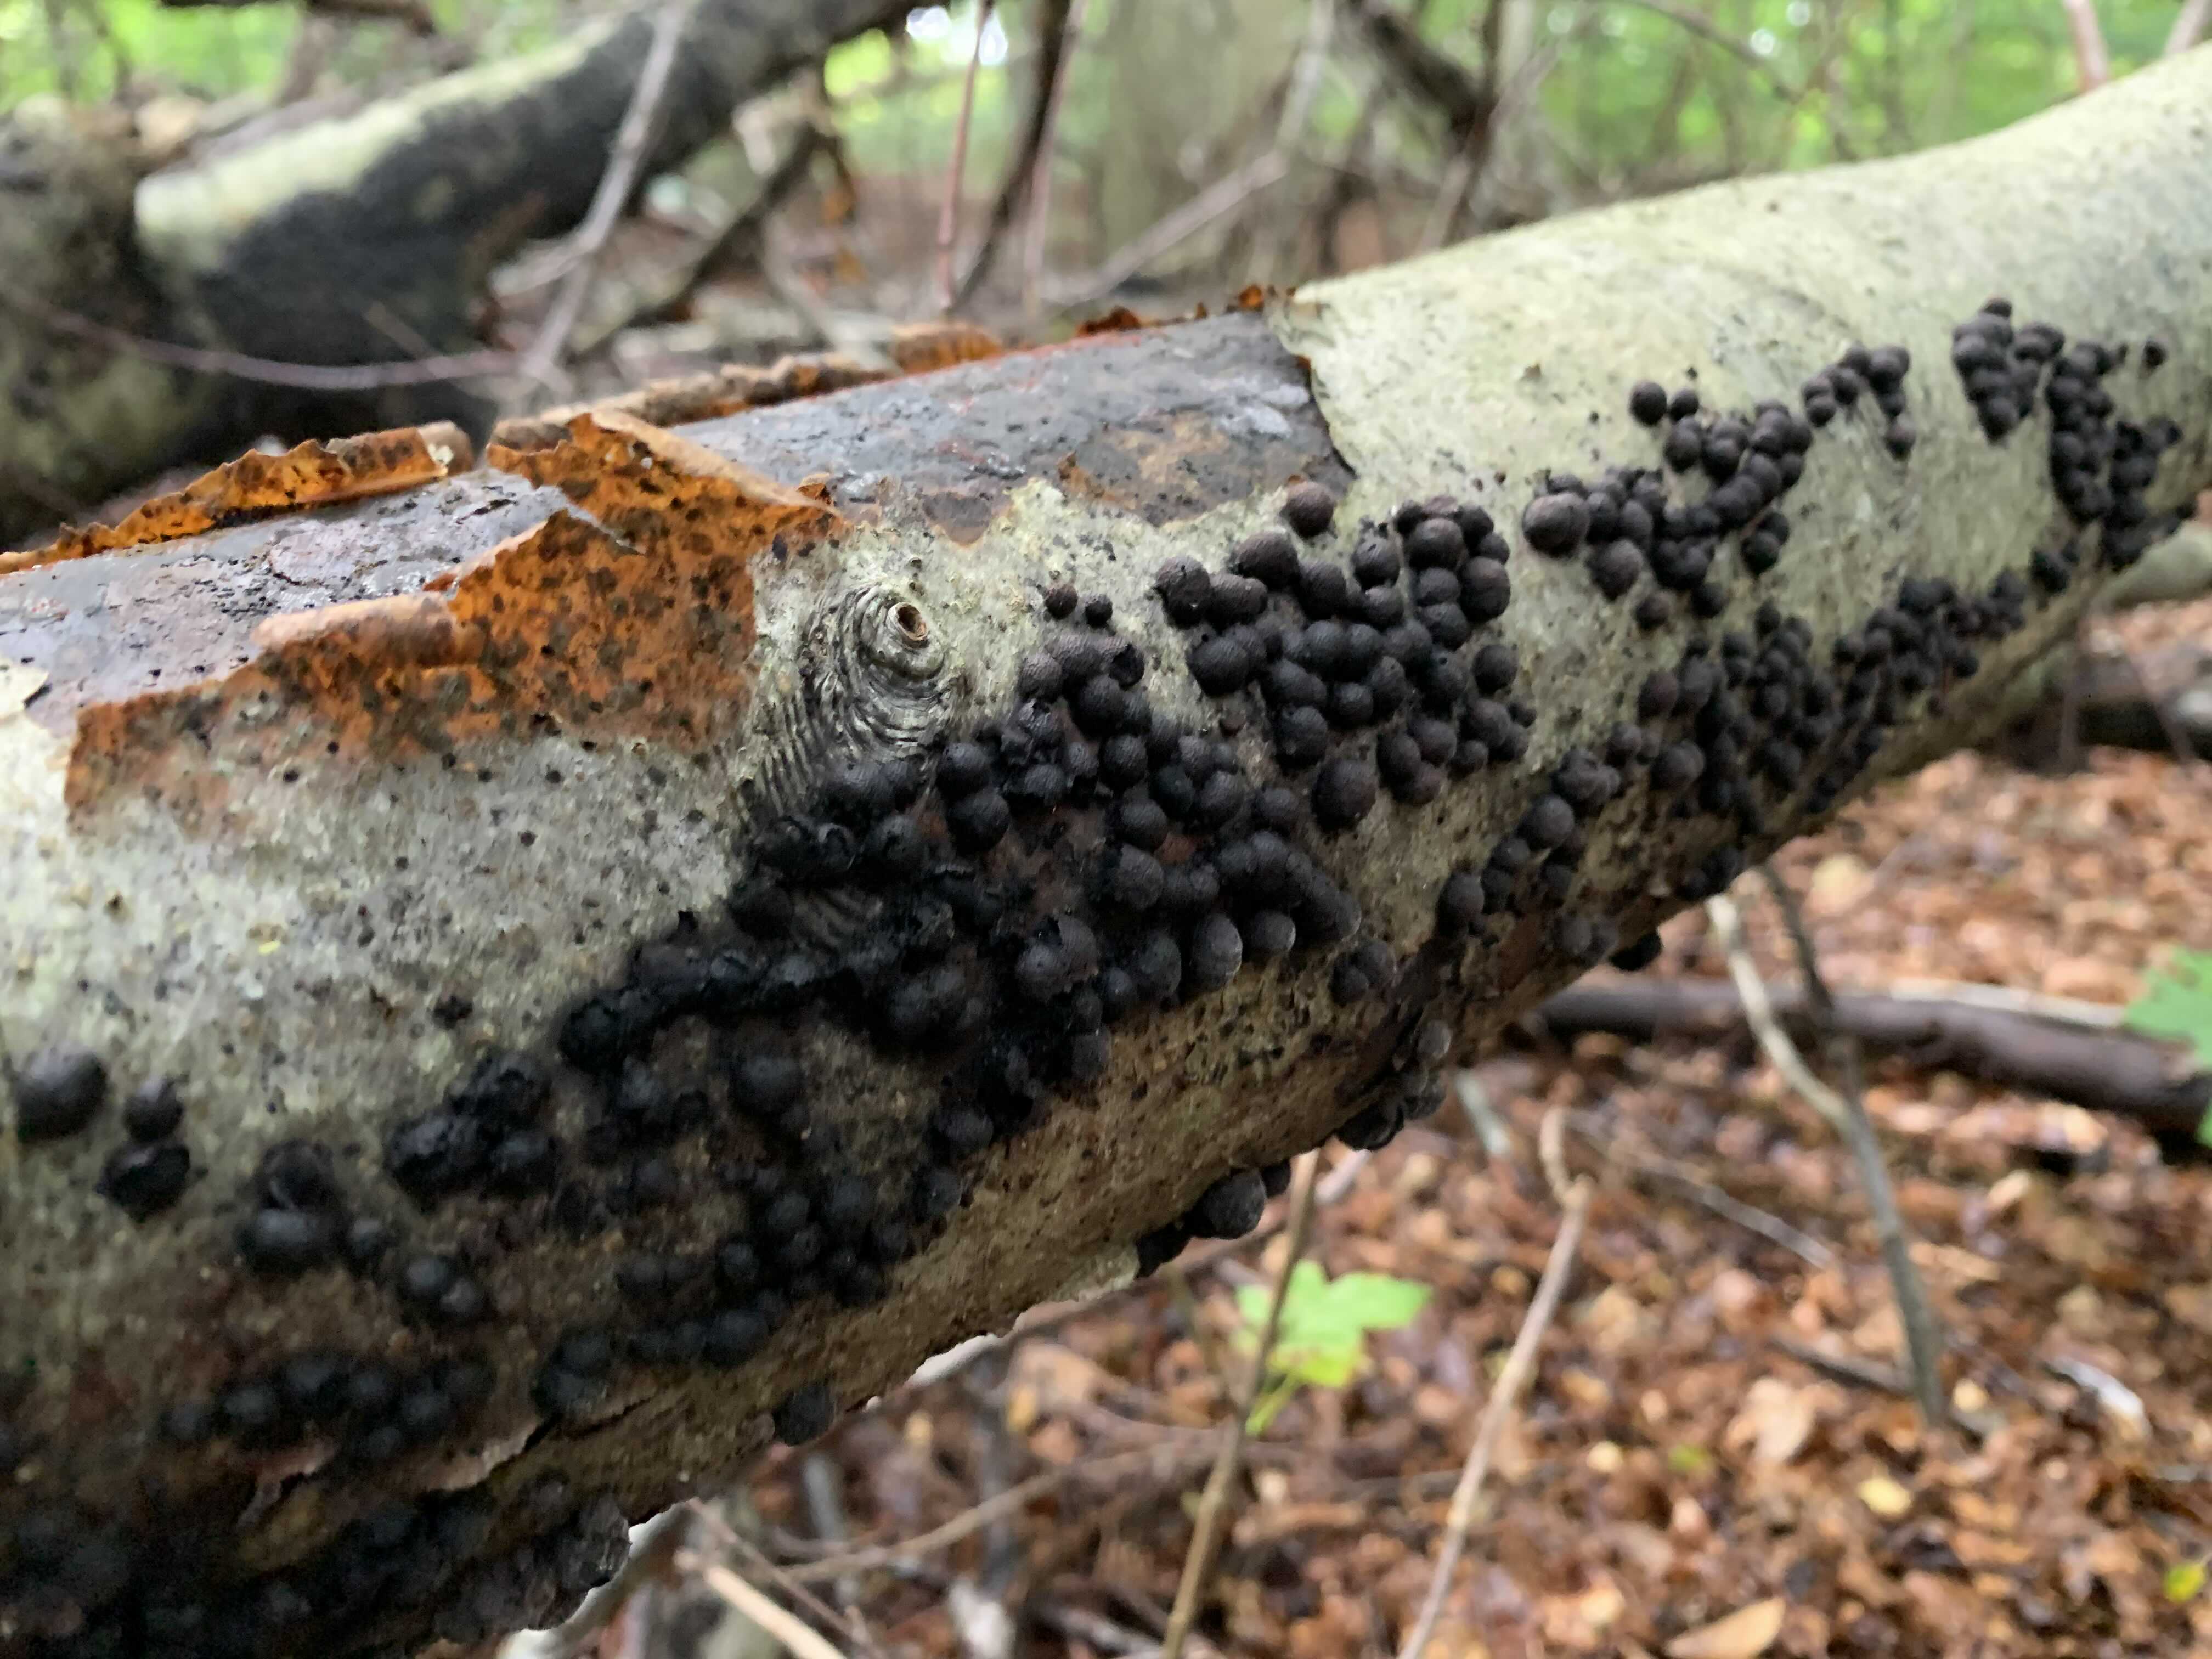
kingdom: Fungi
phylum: Ascomycota
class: Sordariomycetes
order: Xylariales
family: Hypoxylaceae
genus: Hypoxylon
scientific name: Hypoxylon fragiforme
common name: kuljordbær
